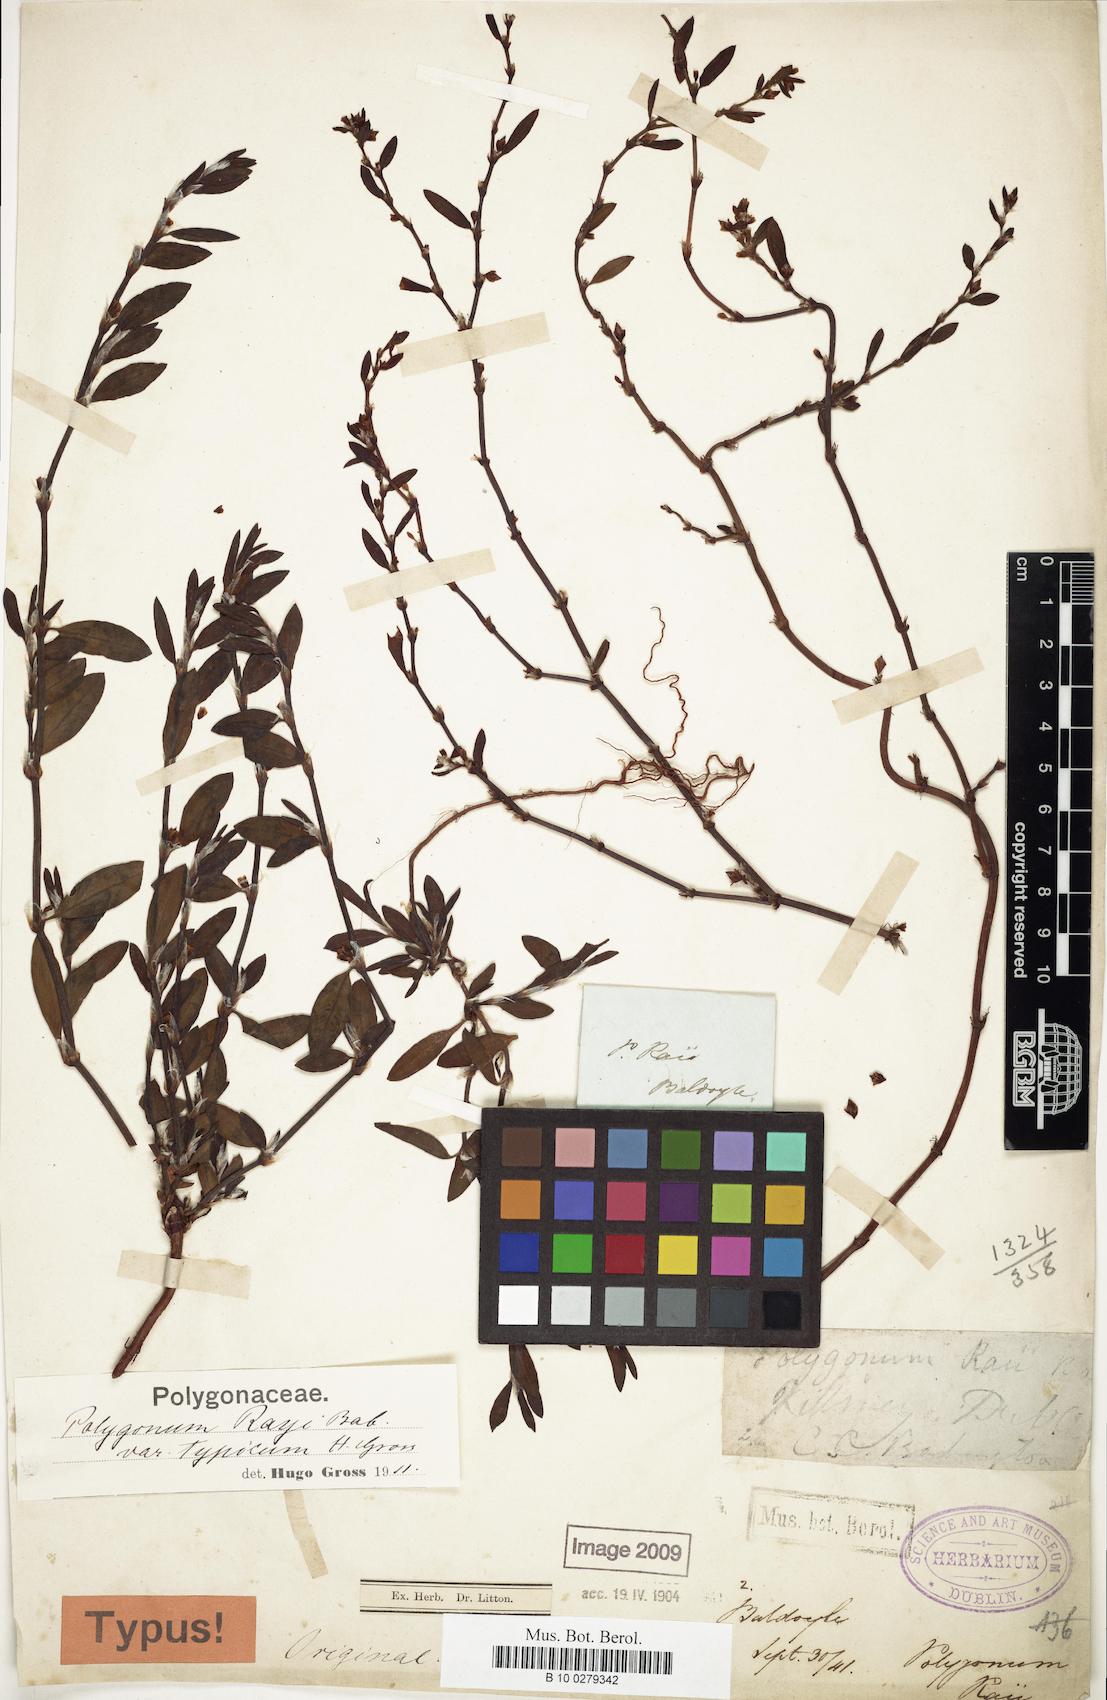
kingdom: Plantae
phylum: Tracheophyta
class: Magnoliopsida
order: Caryophyllales
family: Polygonaceae
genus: Polygonum
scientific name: Polygonum raii
